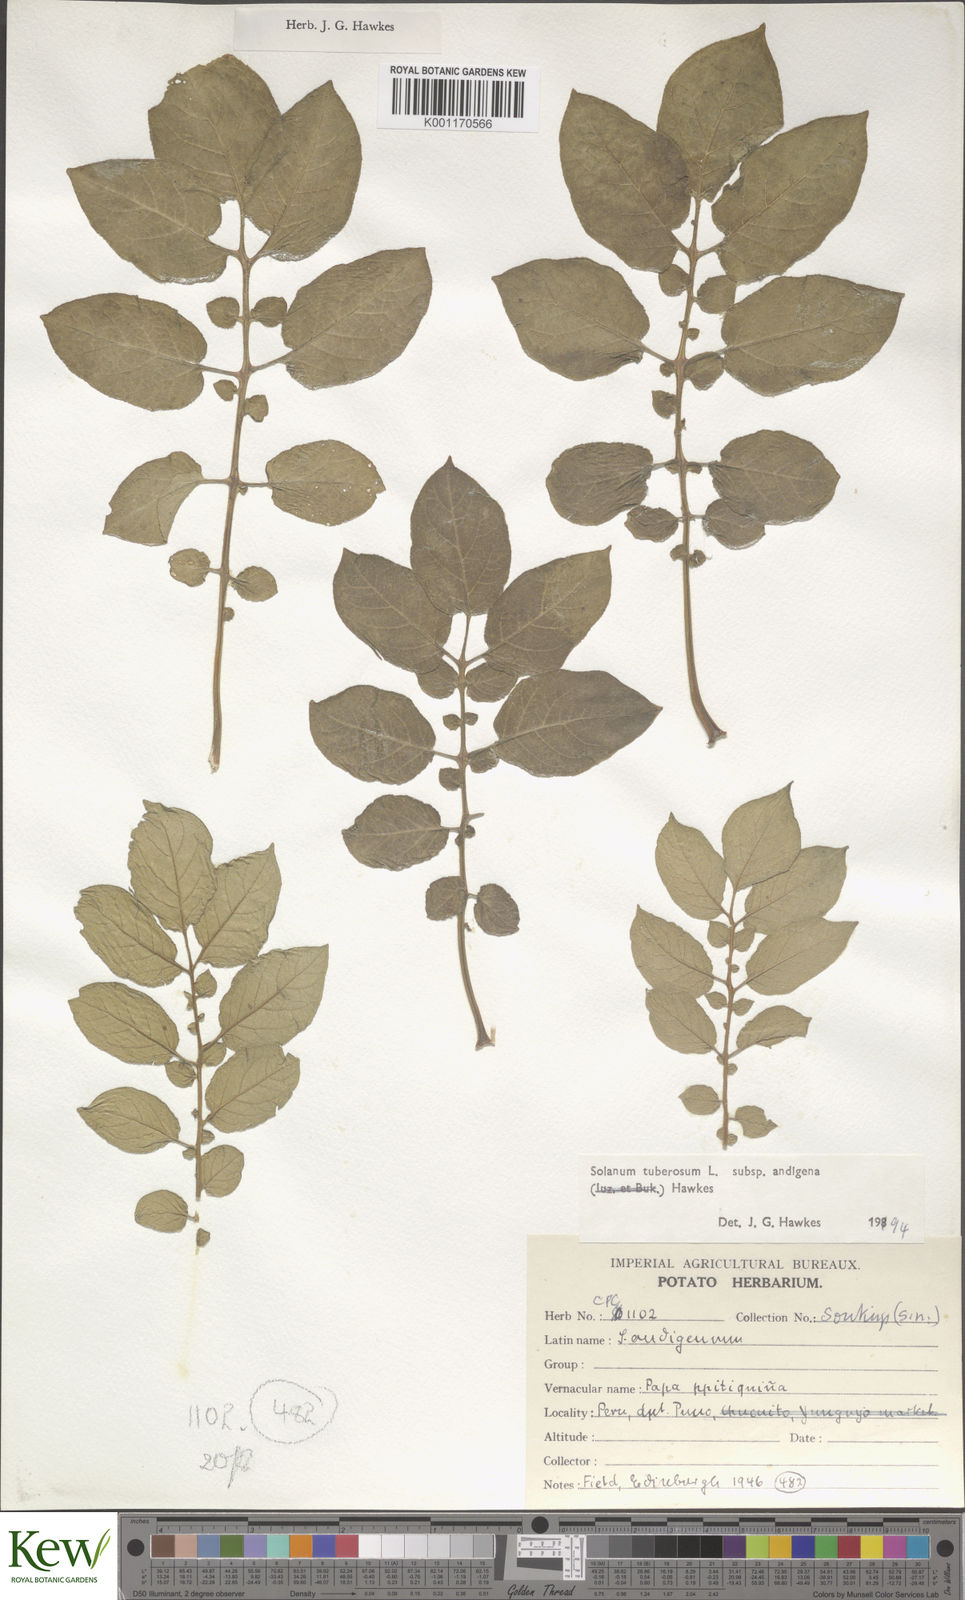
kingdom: Plantae
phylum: Tracheophyta
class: Magnoliopsida
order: Solanales
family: Solanaceae
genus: Solanum
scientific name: Solanum tuberosum
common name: Potato
